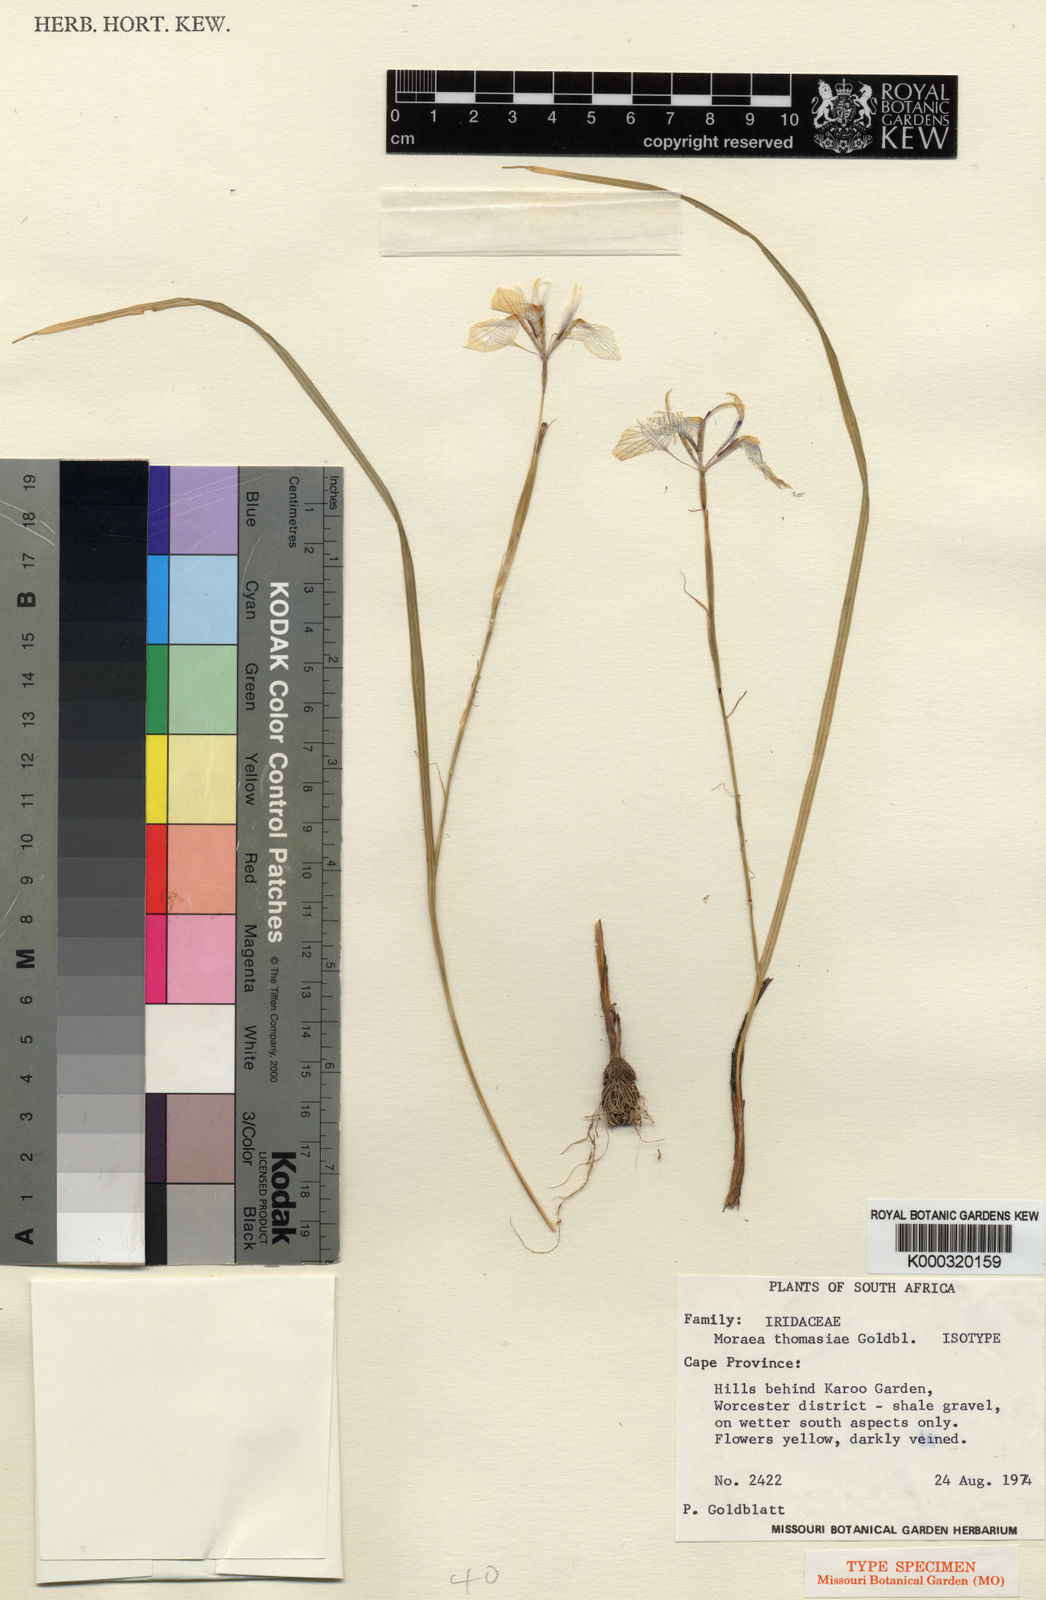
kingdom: Plantae
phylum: Tracheophyta
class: Liliopsida
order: Asparagales
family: Iridaceae
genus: Moraea
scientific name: Moraea thomasiae
